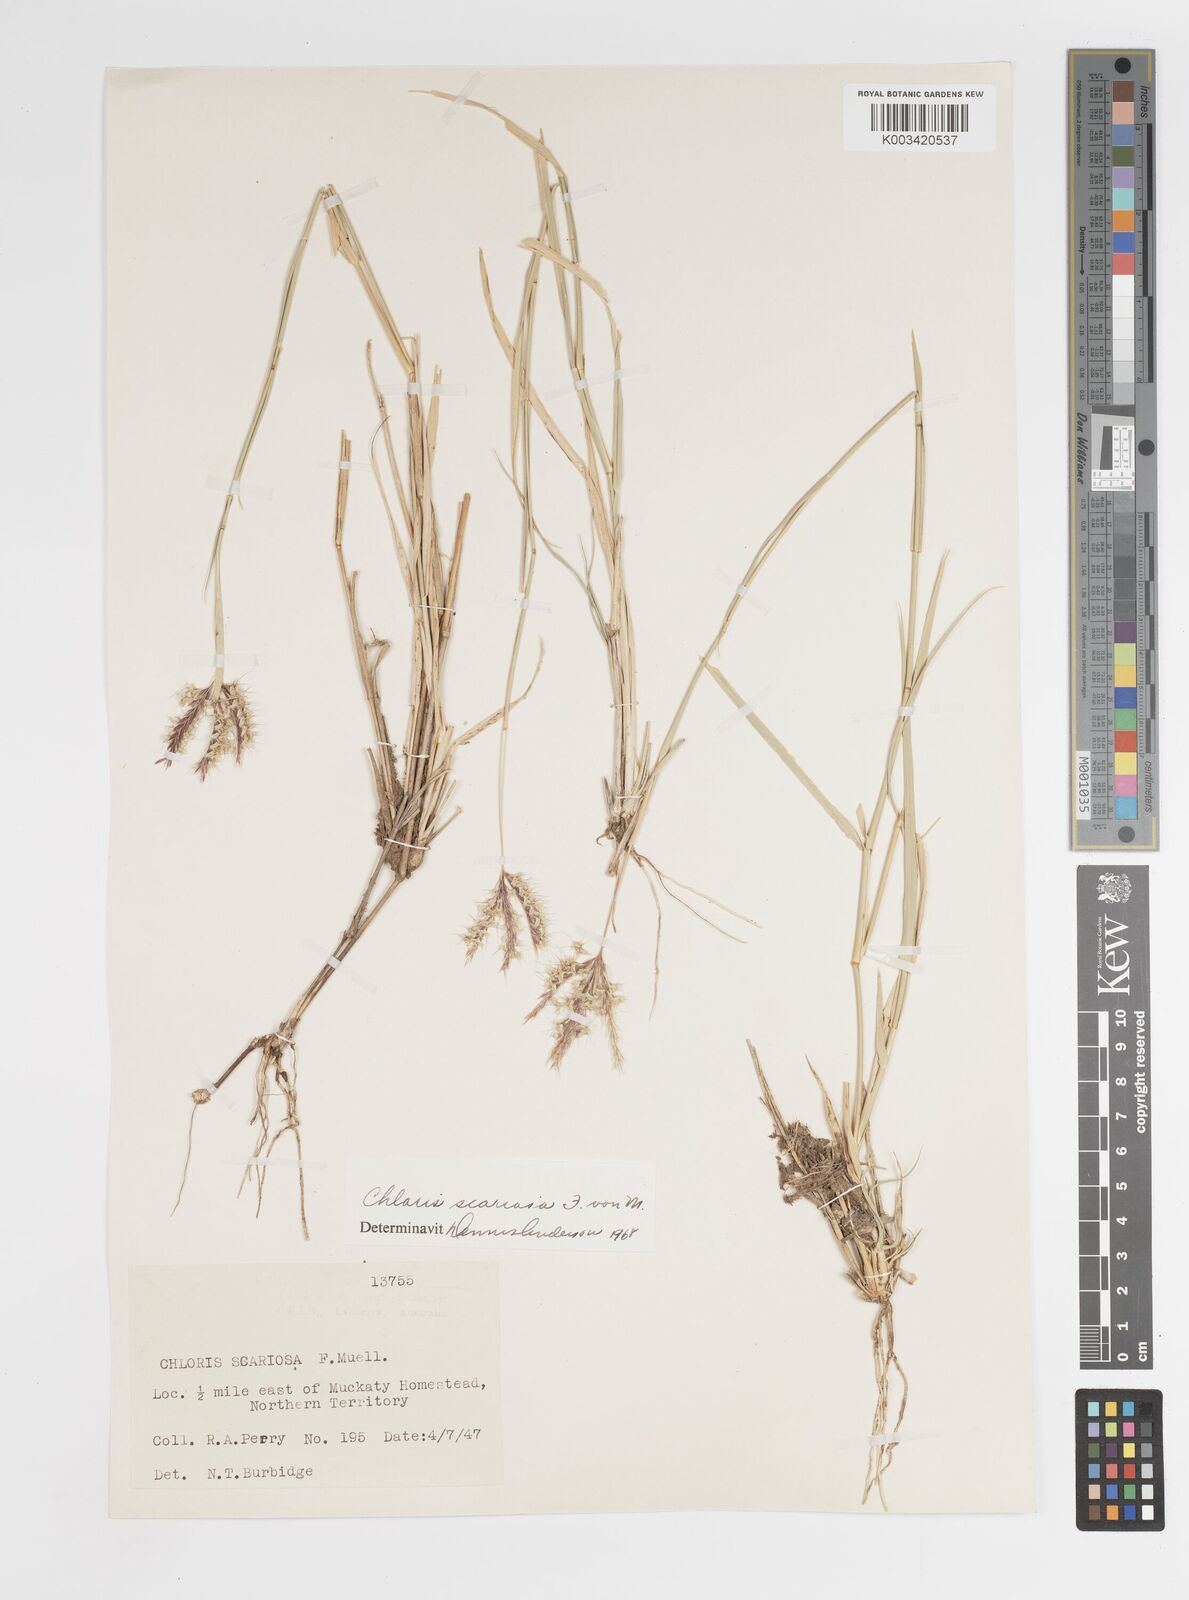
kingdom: Plantae
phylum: Tracheophyta
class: Liliopsida
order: Poales
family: Poaceae
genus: Oxychloris
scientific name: Oxychloris scariosa
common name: Winged windmill grass
